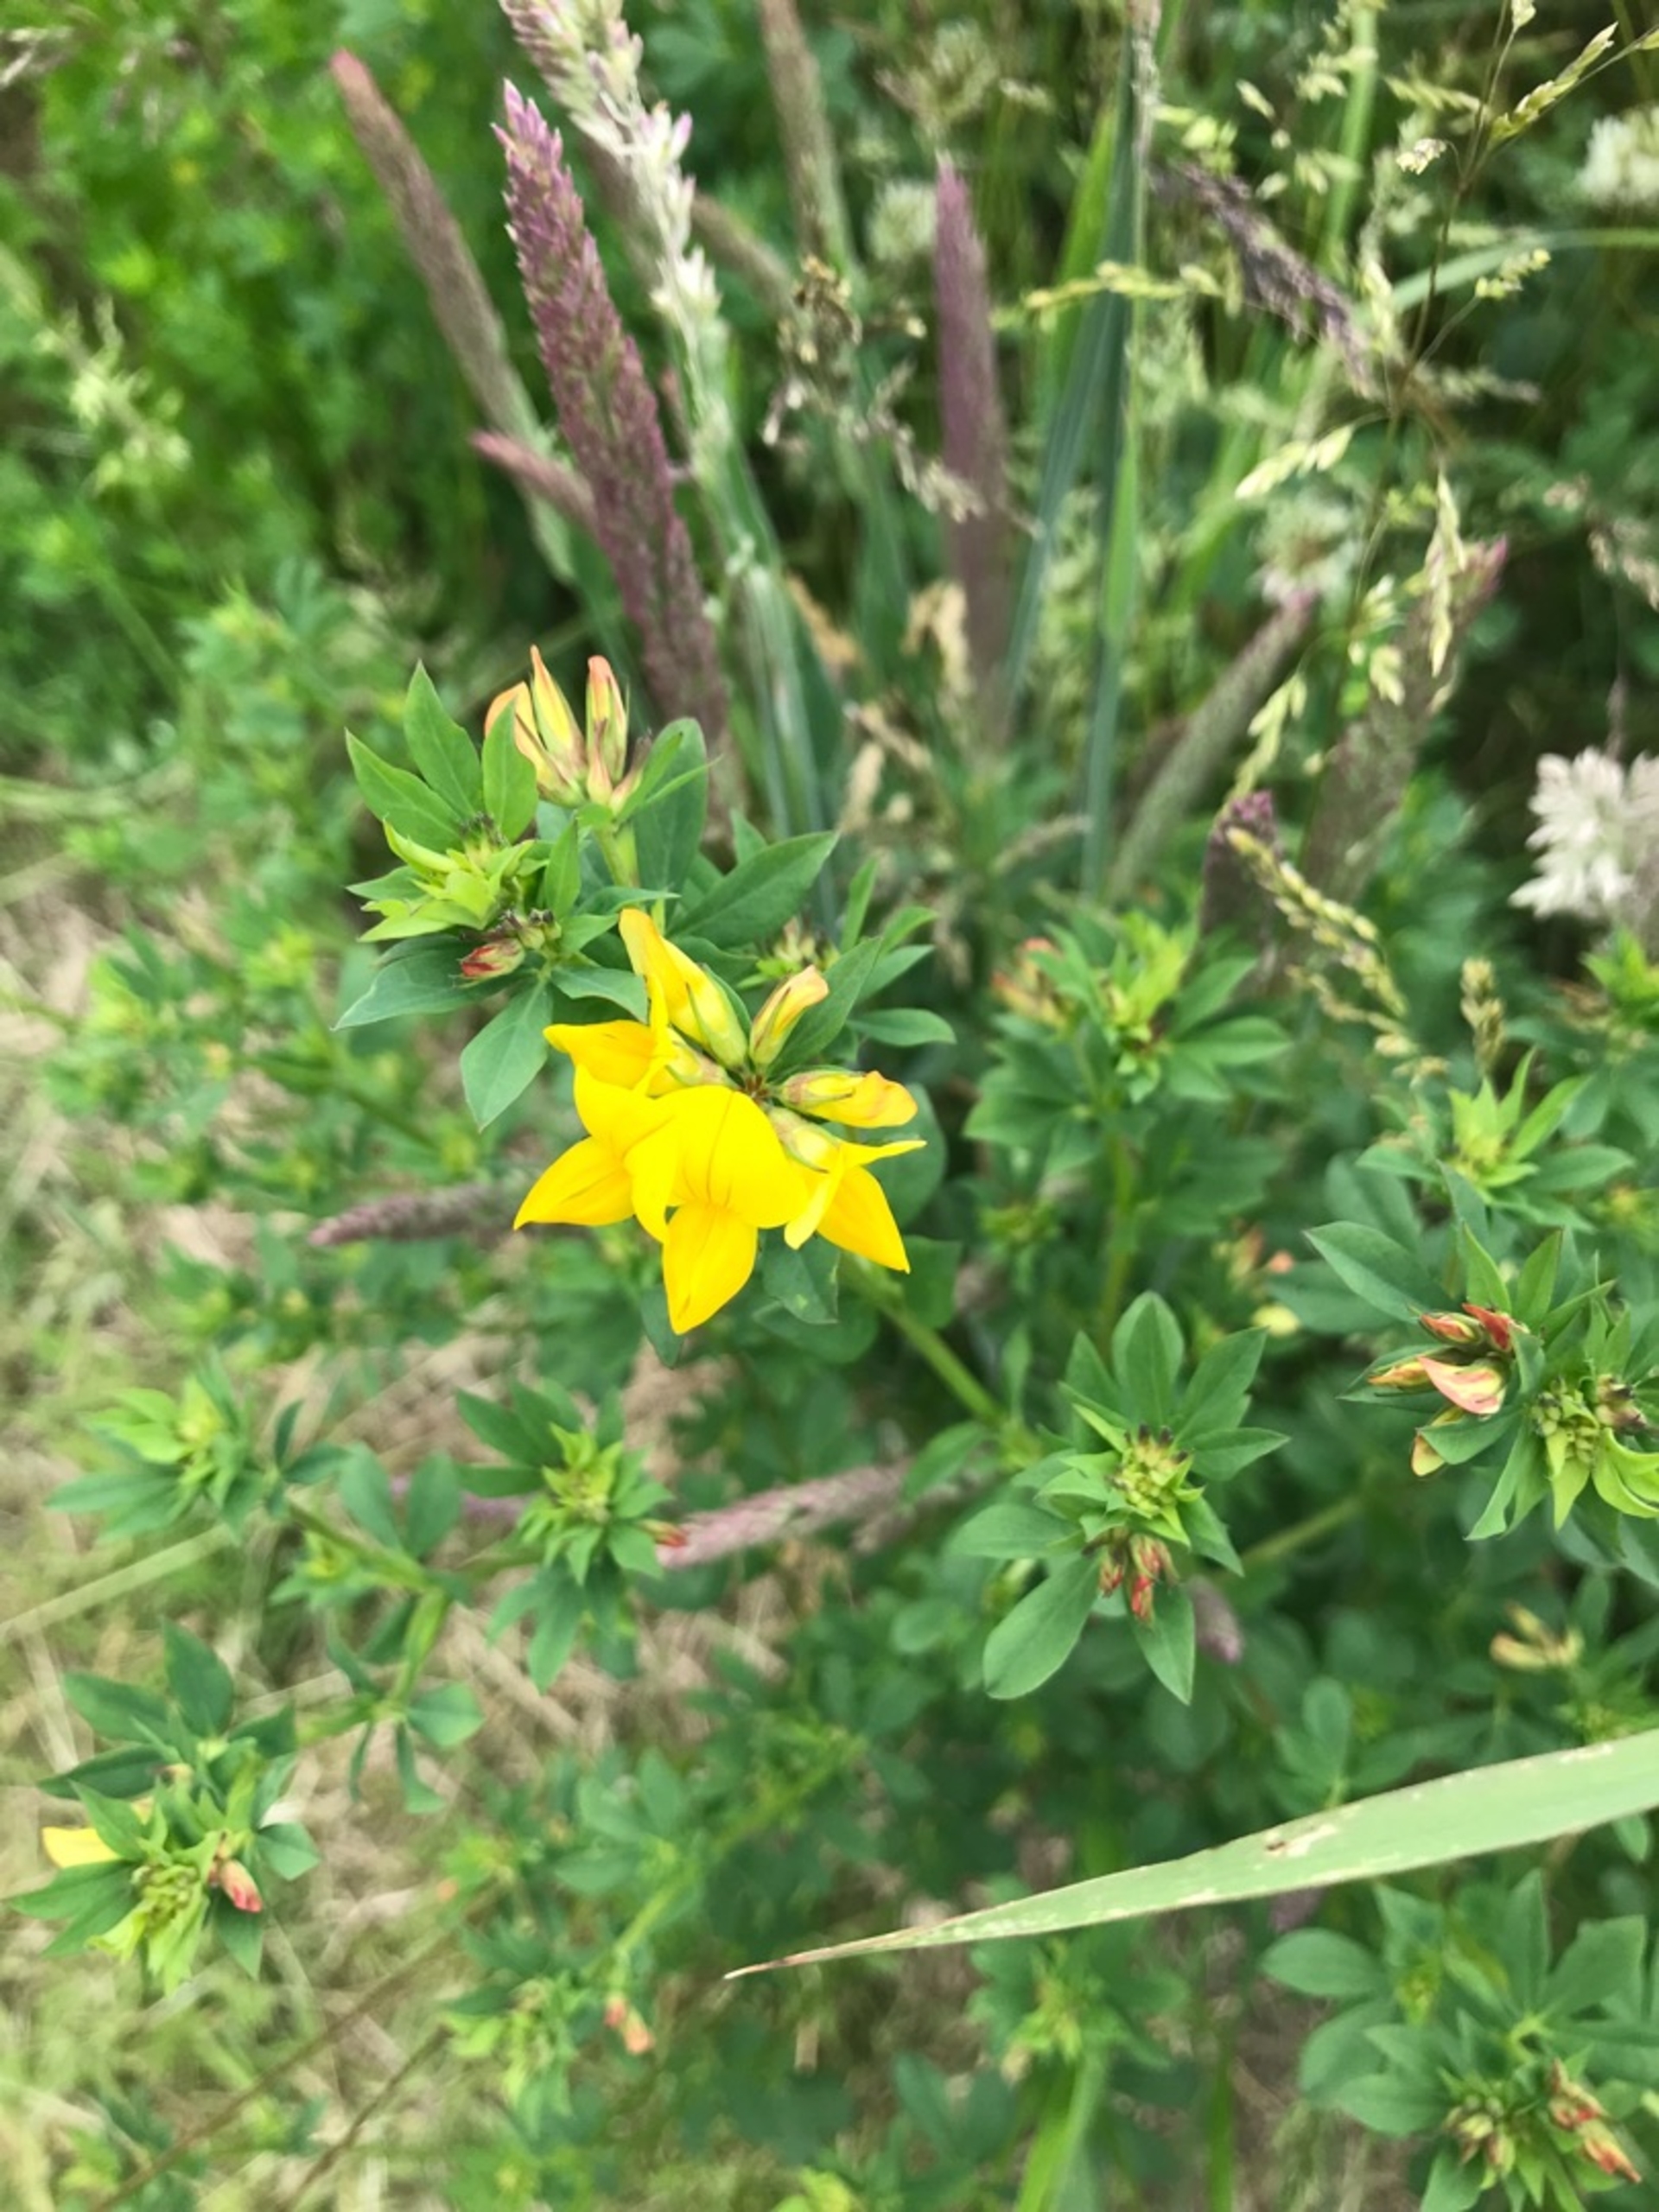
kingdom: Plantae
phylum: Tracheophyta
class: Magnoliopsida
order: Fabales
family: Fabaceae
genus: Lotus
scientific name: Lotus corniculatus
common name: Almindelig kællingetand
